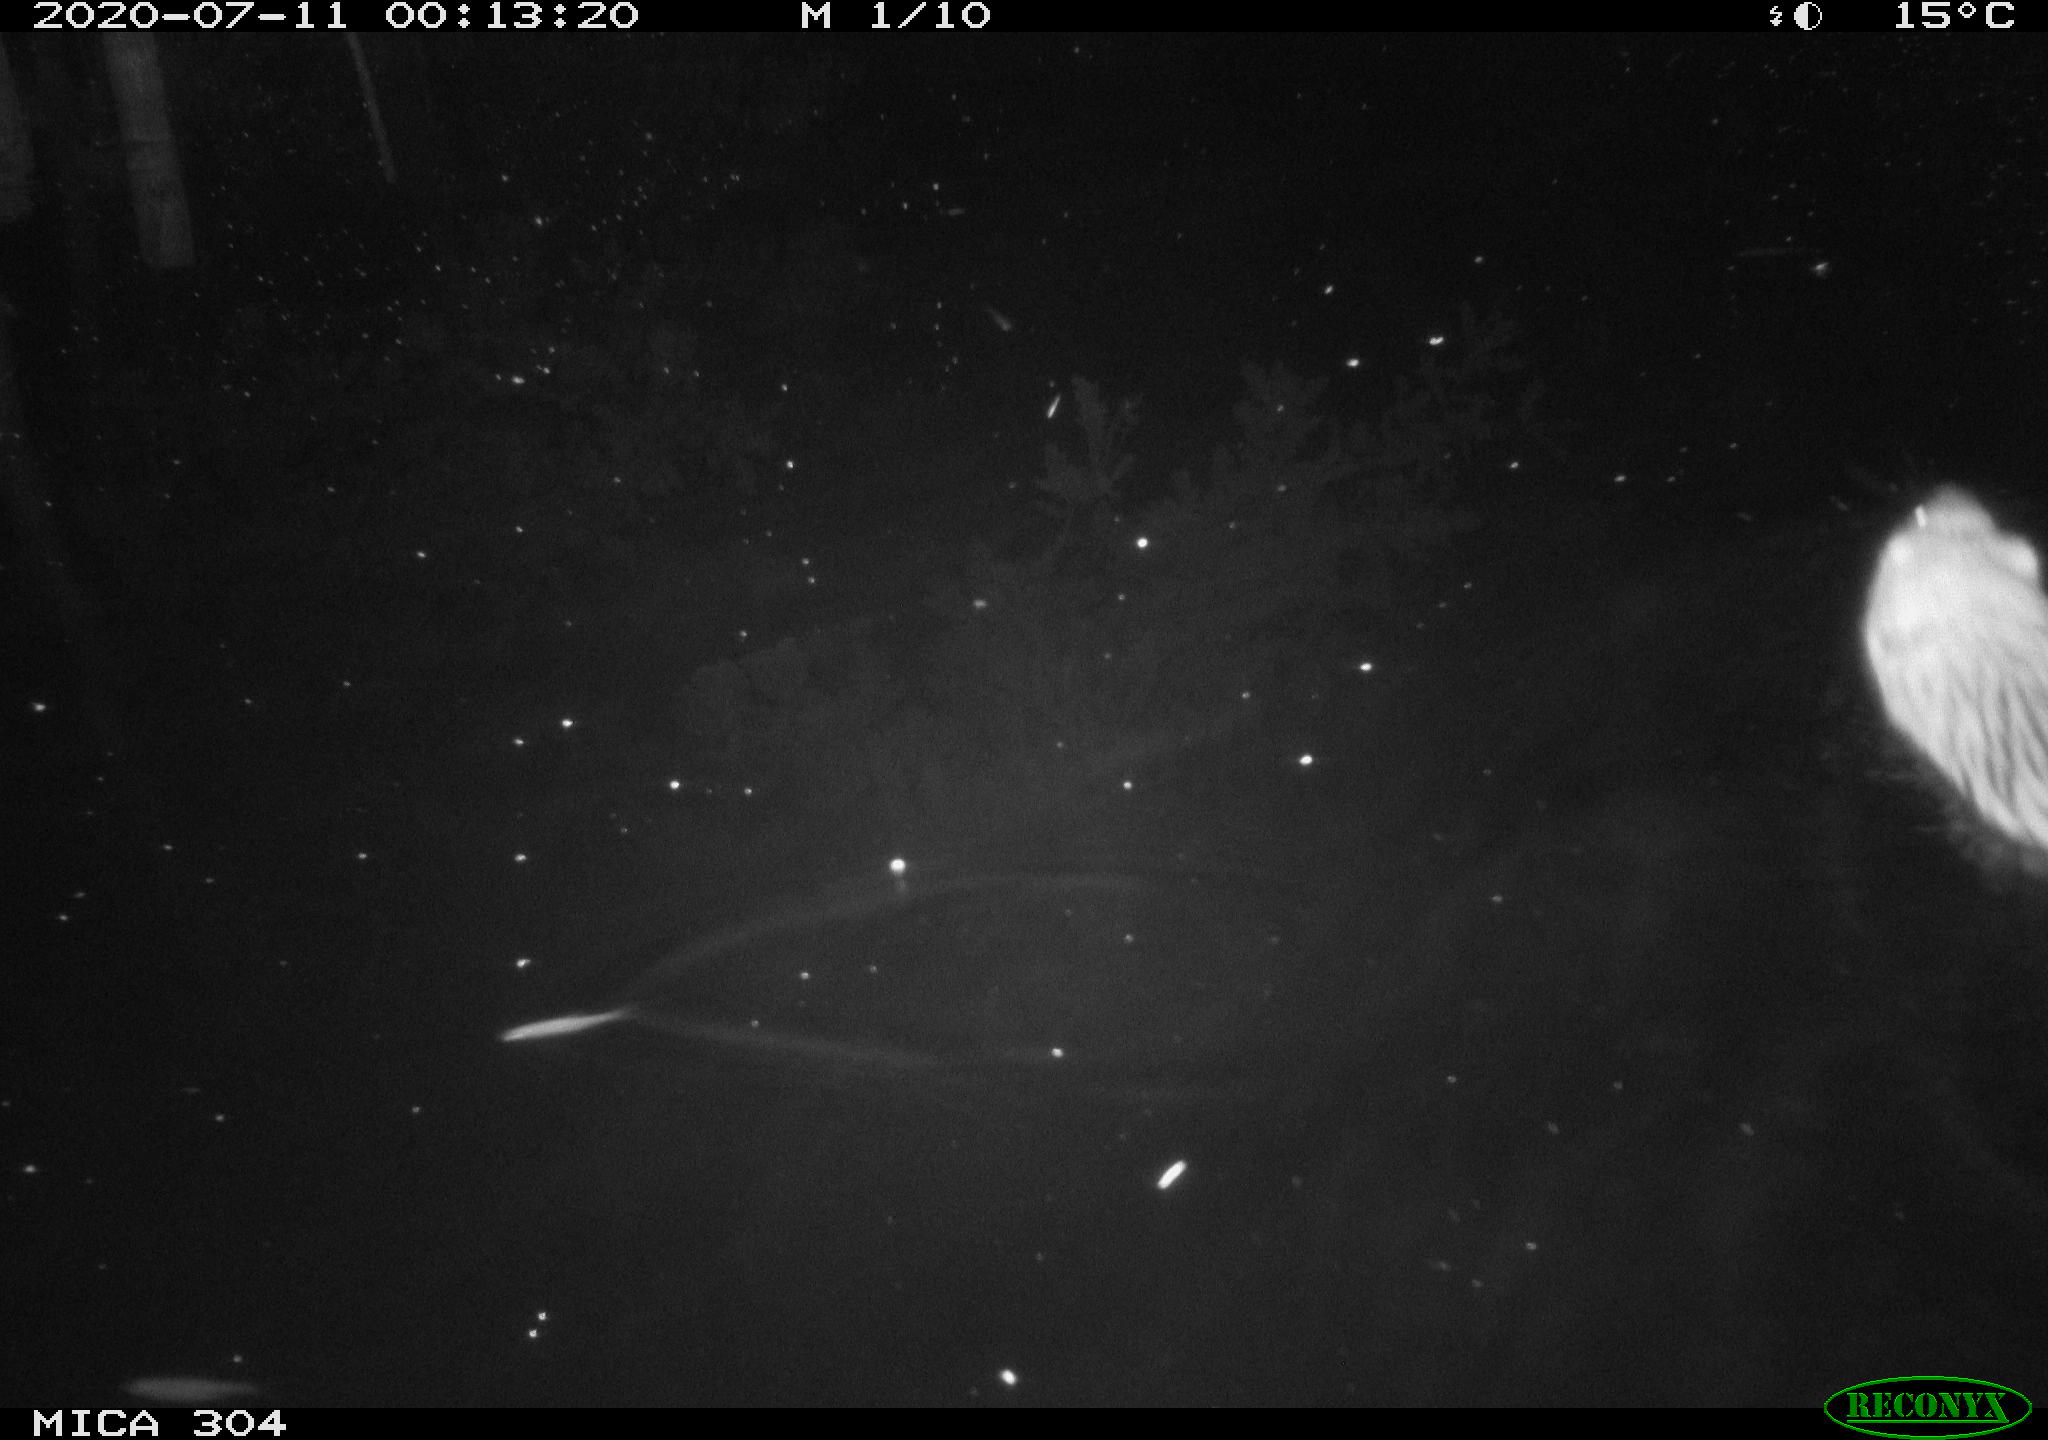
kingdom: Animalia
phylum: Chordata
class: Mammalia
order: Rodentia
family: Cricetidae
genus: Ondatra
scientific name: Ondatra zibethicus
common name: Muskrat
